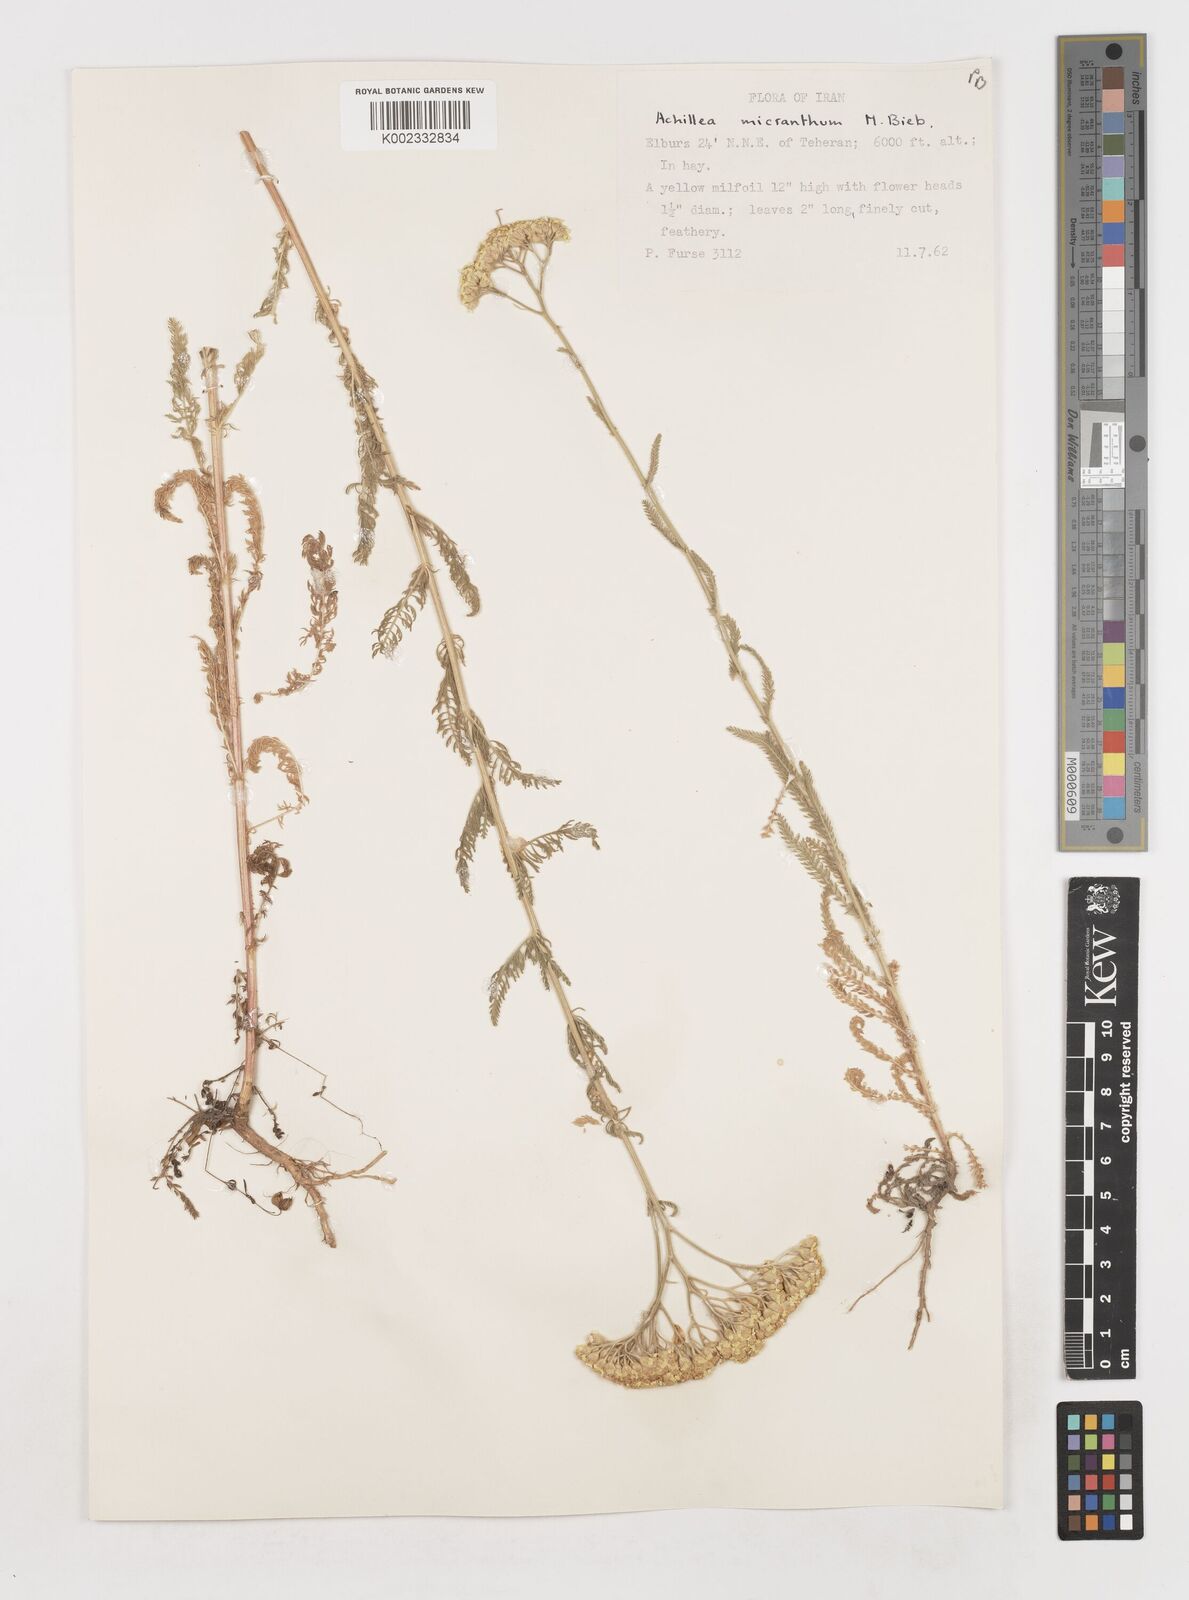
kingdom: Plantae
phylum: Tracheophyta
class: Magnoliopsida
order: Asterales
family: Asteraceae
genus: Achillea
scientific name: Achillea arabica
